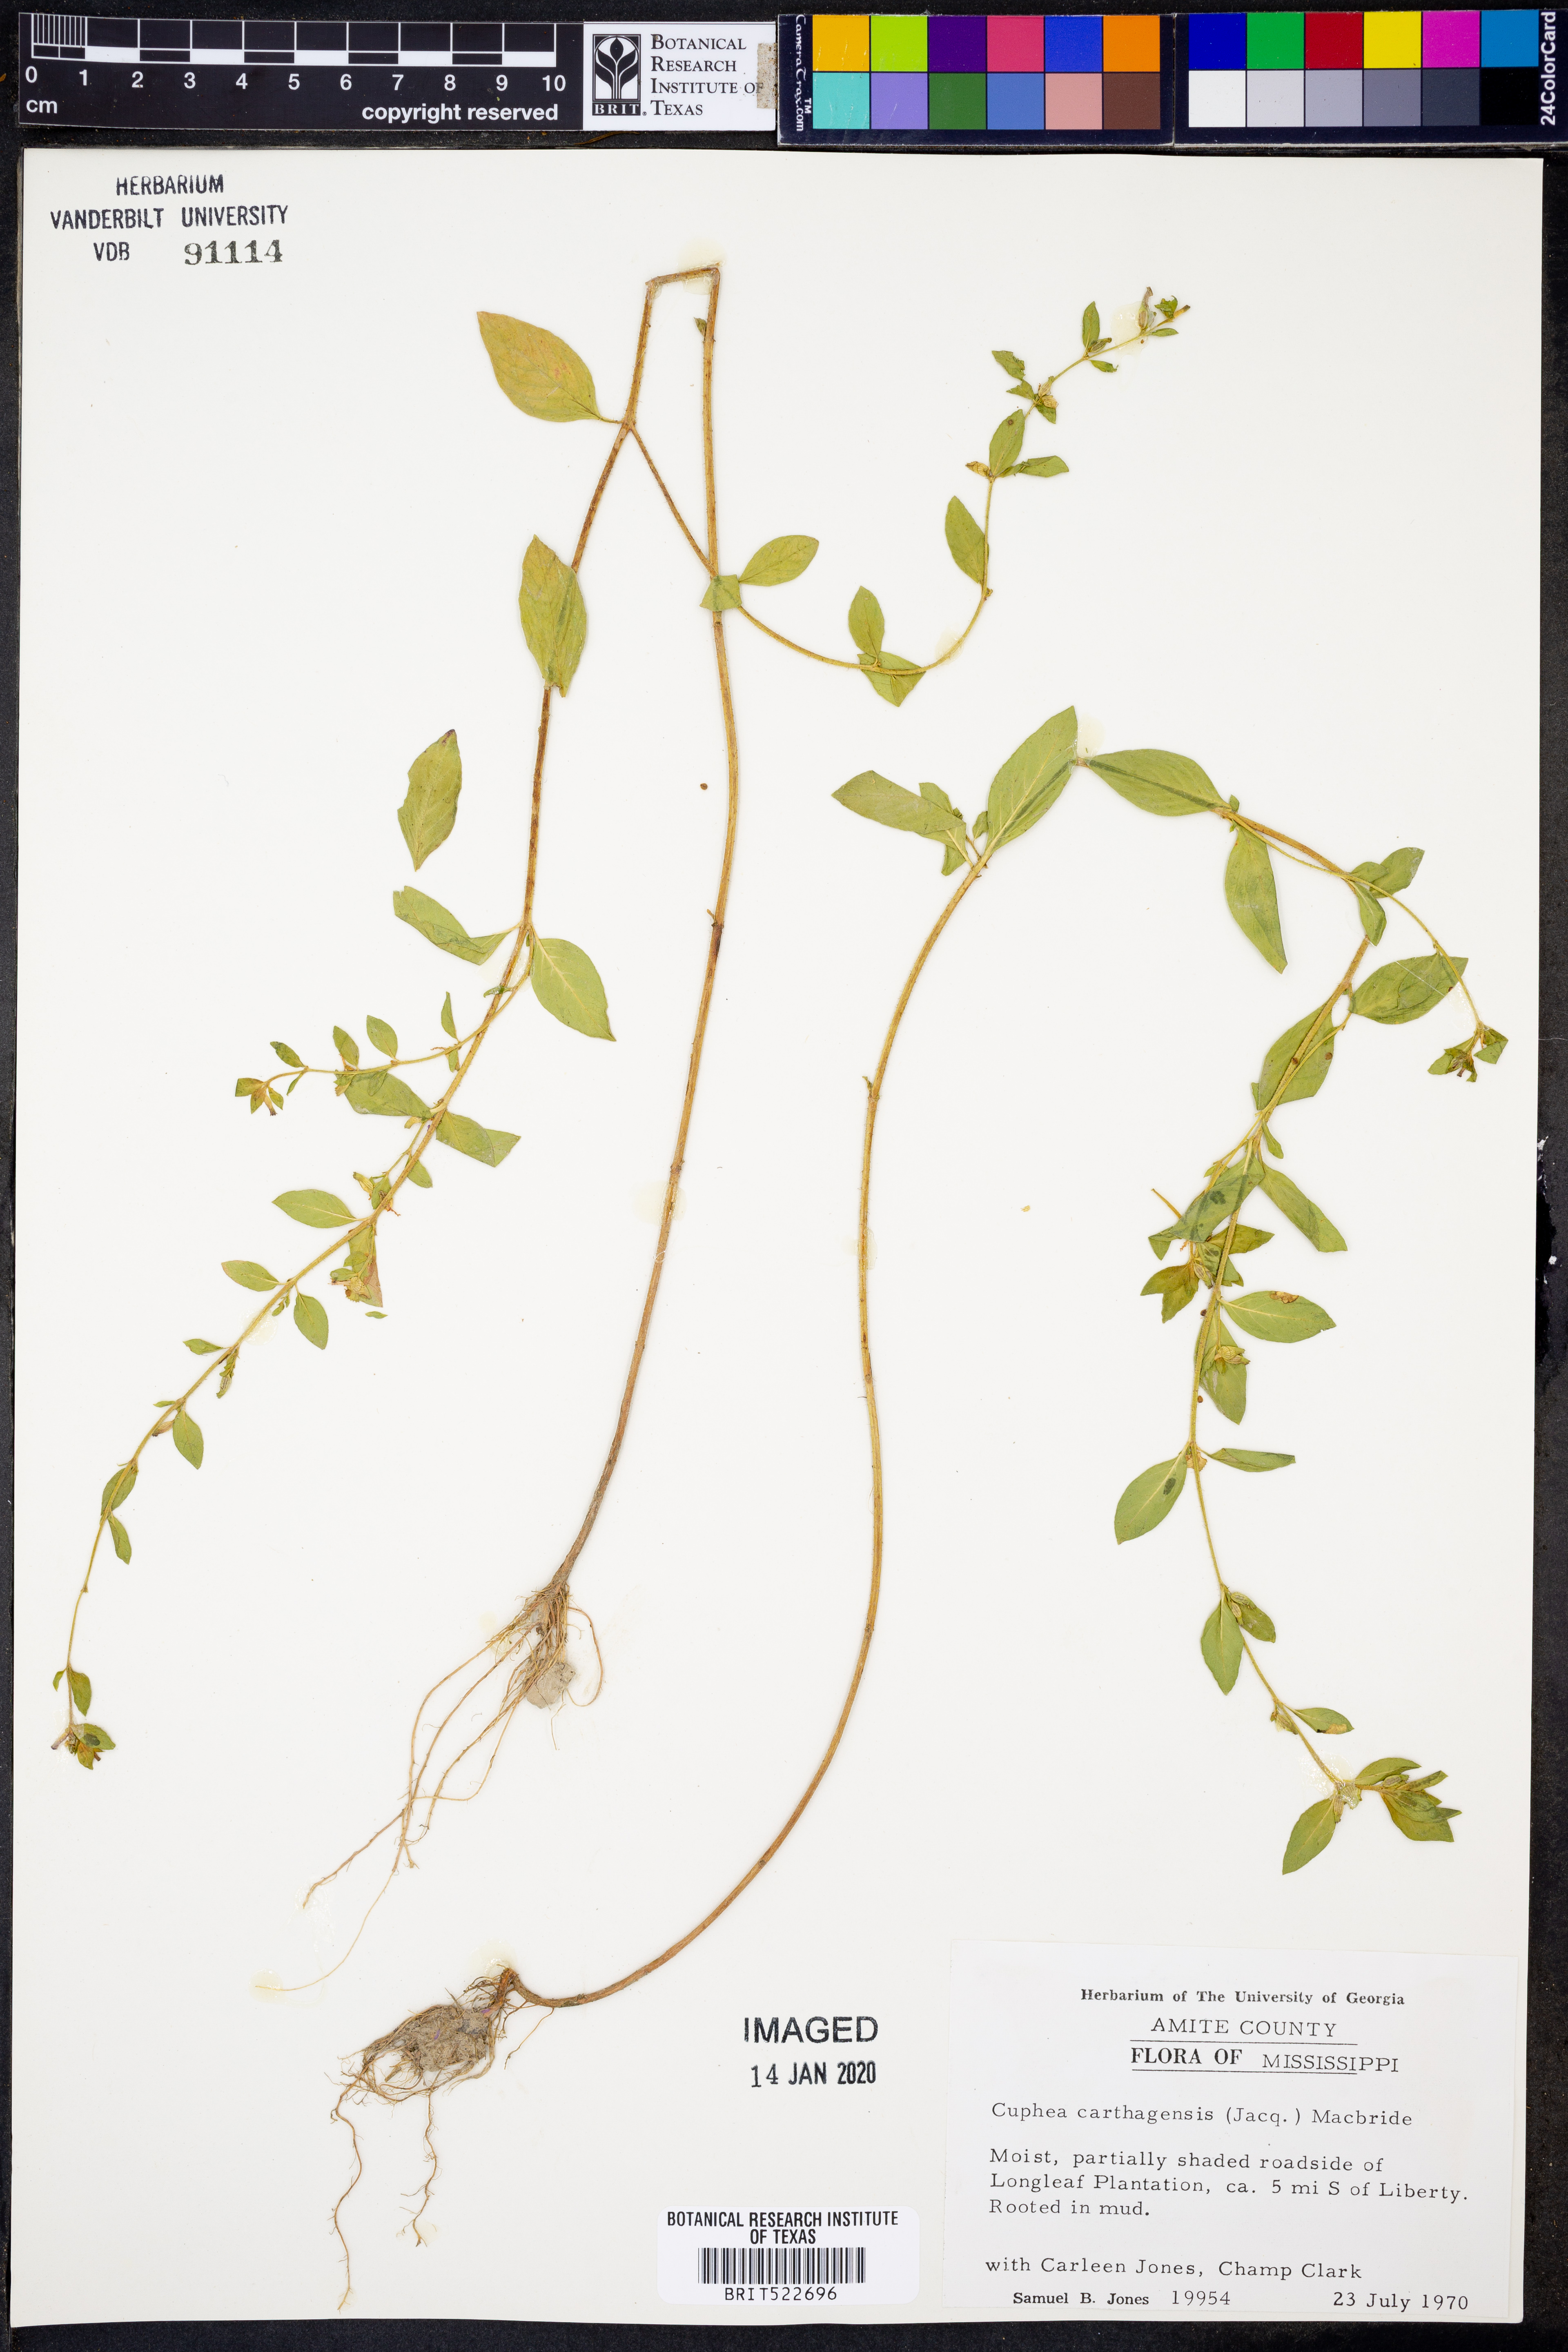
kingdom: Plantae
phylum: Tracheophyta
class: Magnoliopsida
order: Myrtales
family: Lythraceae
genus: Cuphea
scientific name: Cuphea carthagenensis
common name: Colombian waxweed
